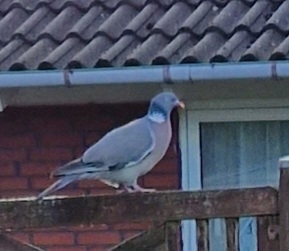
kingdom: Animalia
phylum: Chordata
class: Aves
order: Columbiformes
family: Columbidae
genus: Columba
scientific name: Columba palumbus
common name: Ringdue
